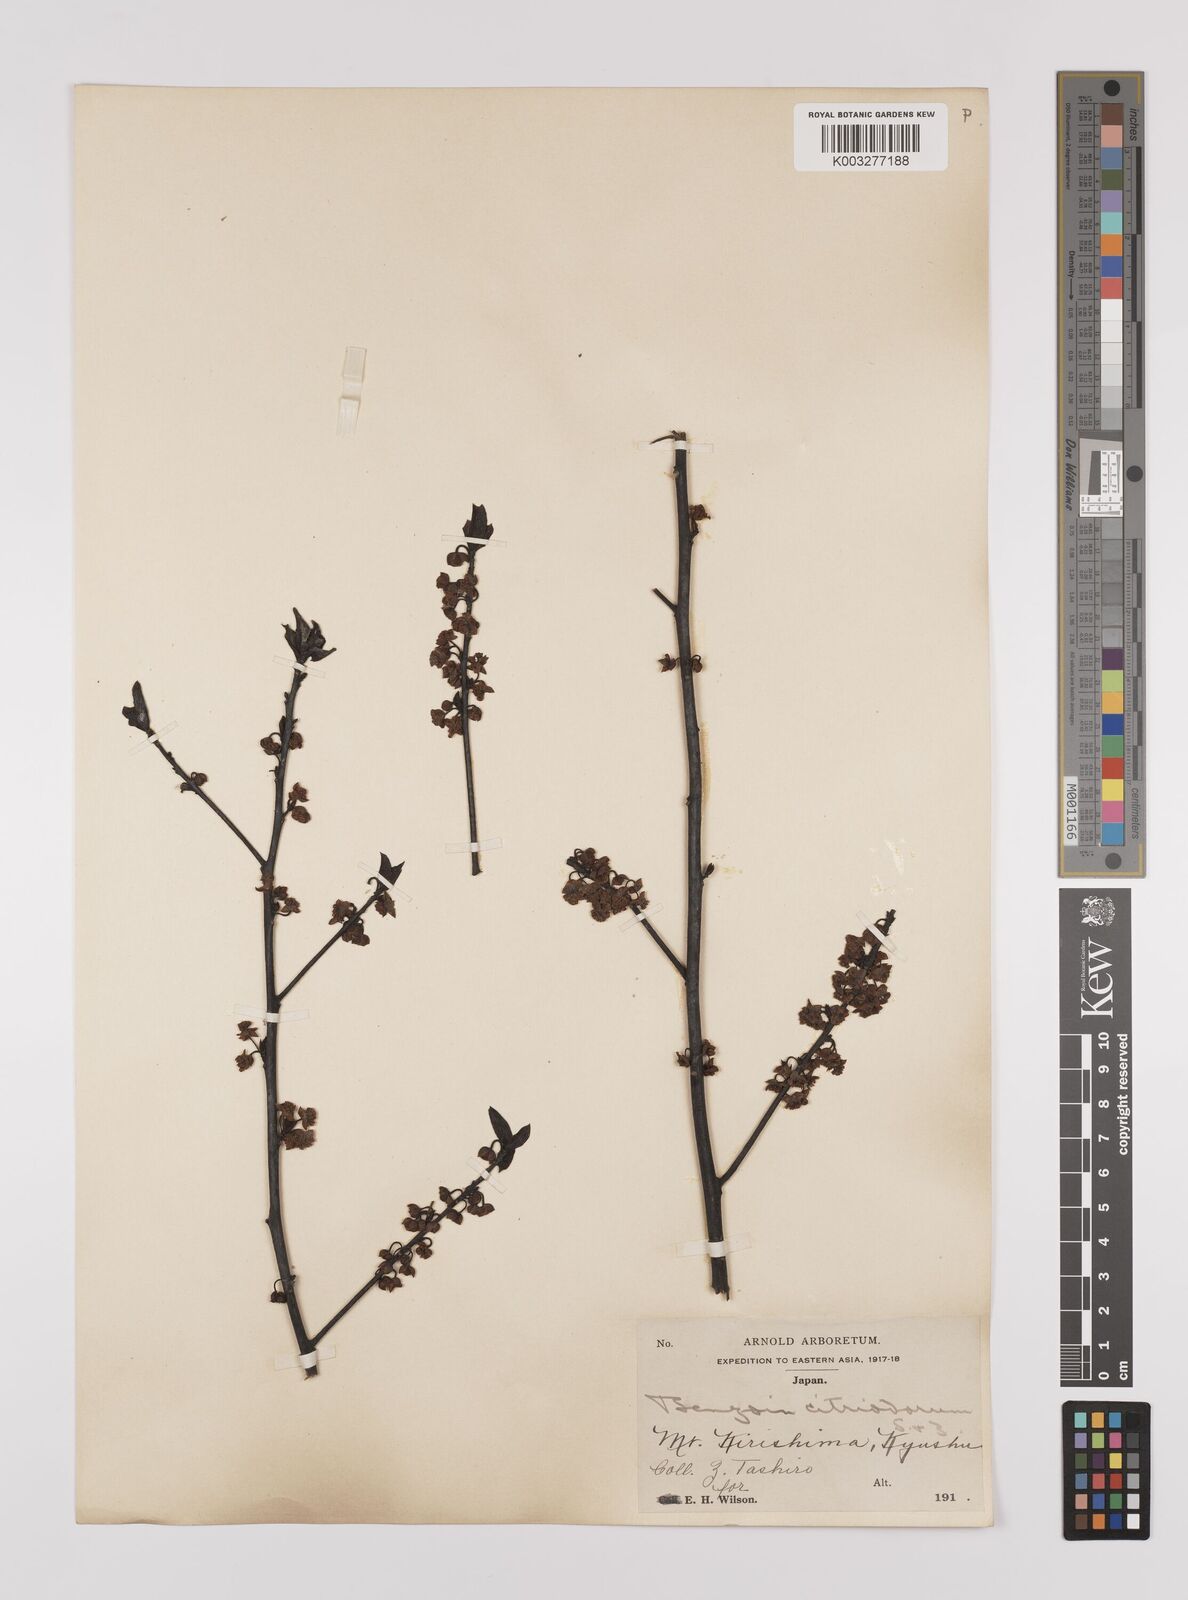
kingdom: Plantae
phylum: Tracheophyta
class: Magnoliopsida
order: Laurales
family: Lauraceae
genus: Lindera
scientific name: Lindera citriodora
